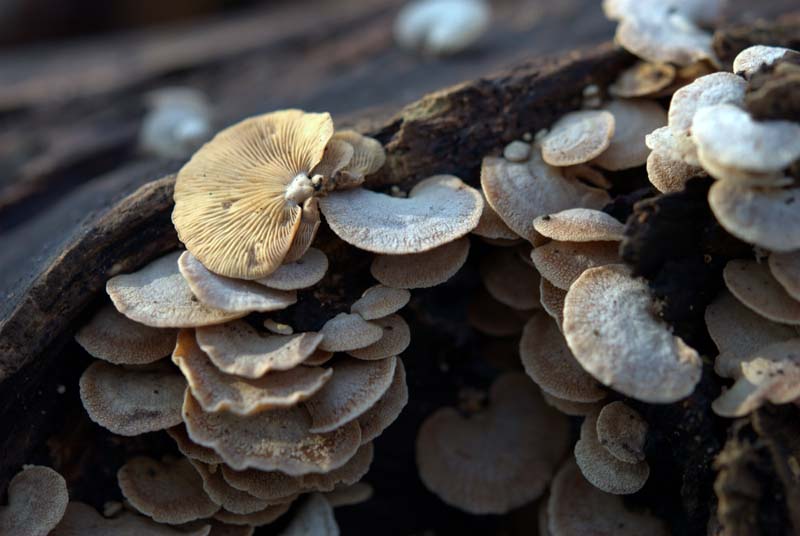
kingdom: Fungi
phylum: Basidiomycota
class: Agaricomycetes
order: Agaricales
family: Mycenaceae
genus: Panellus
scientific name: Panellus stipticus
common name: kliddet epaulethat
